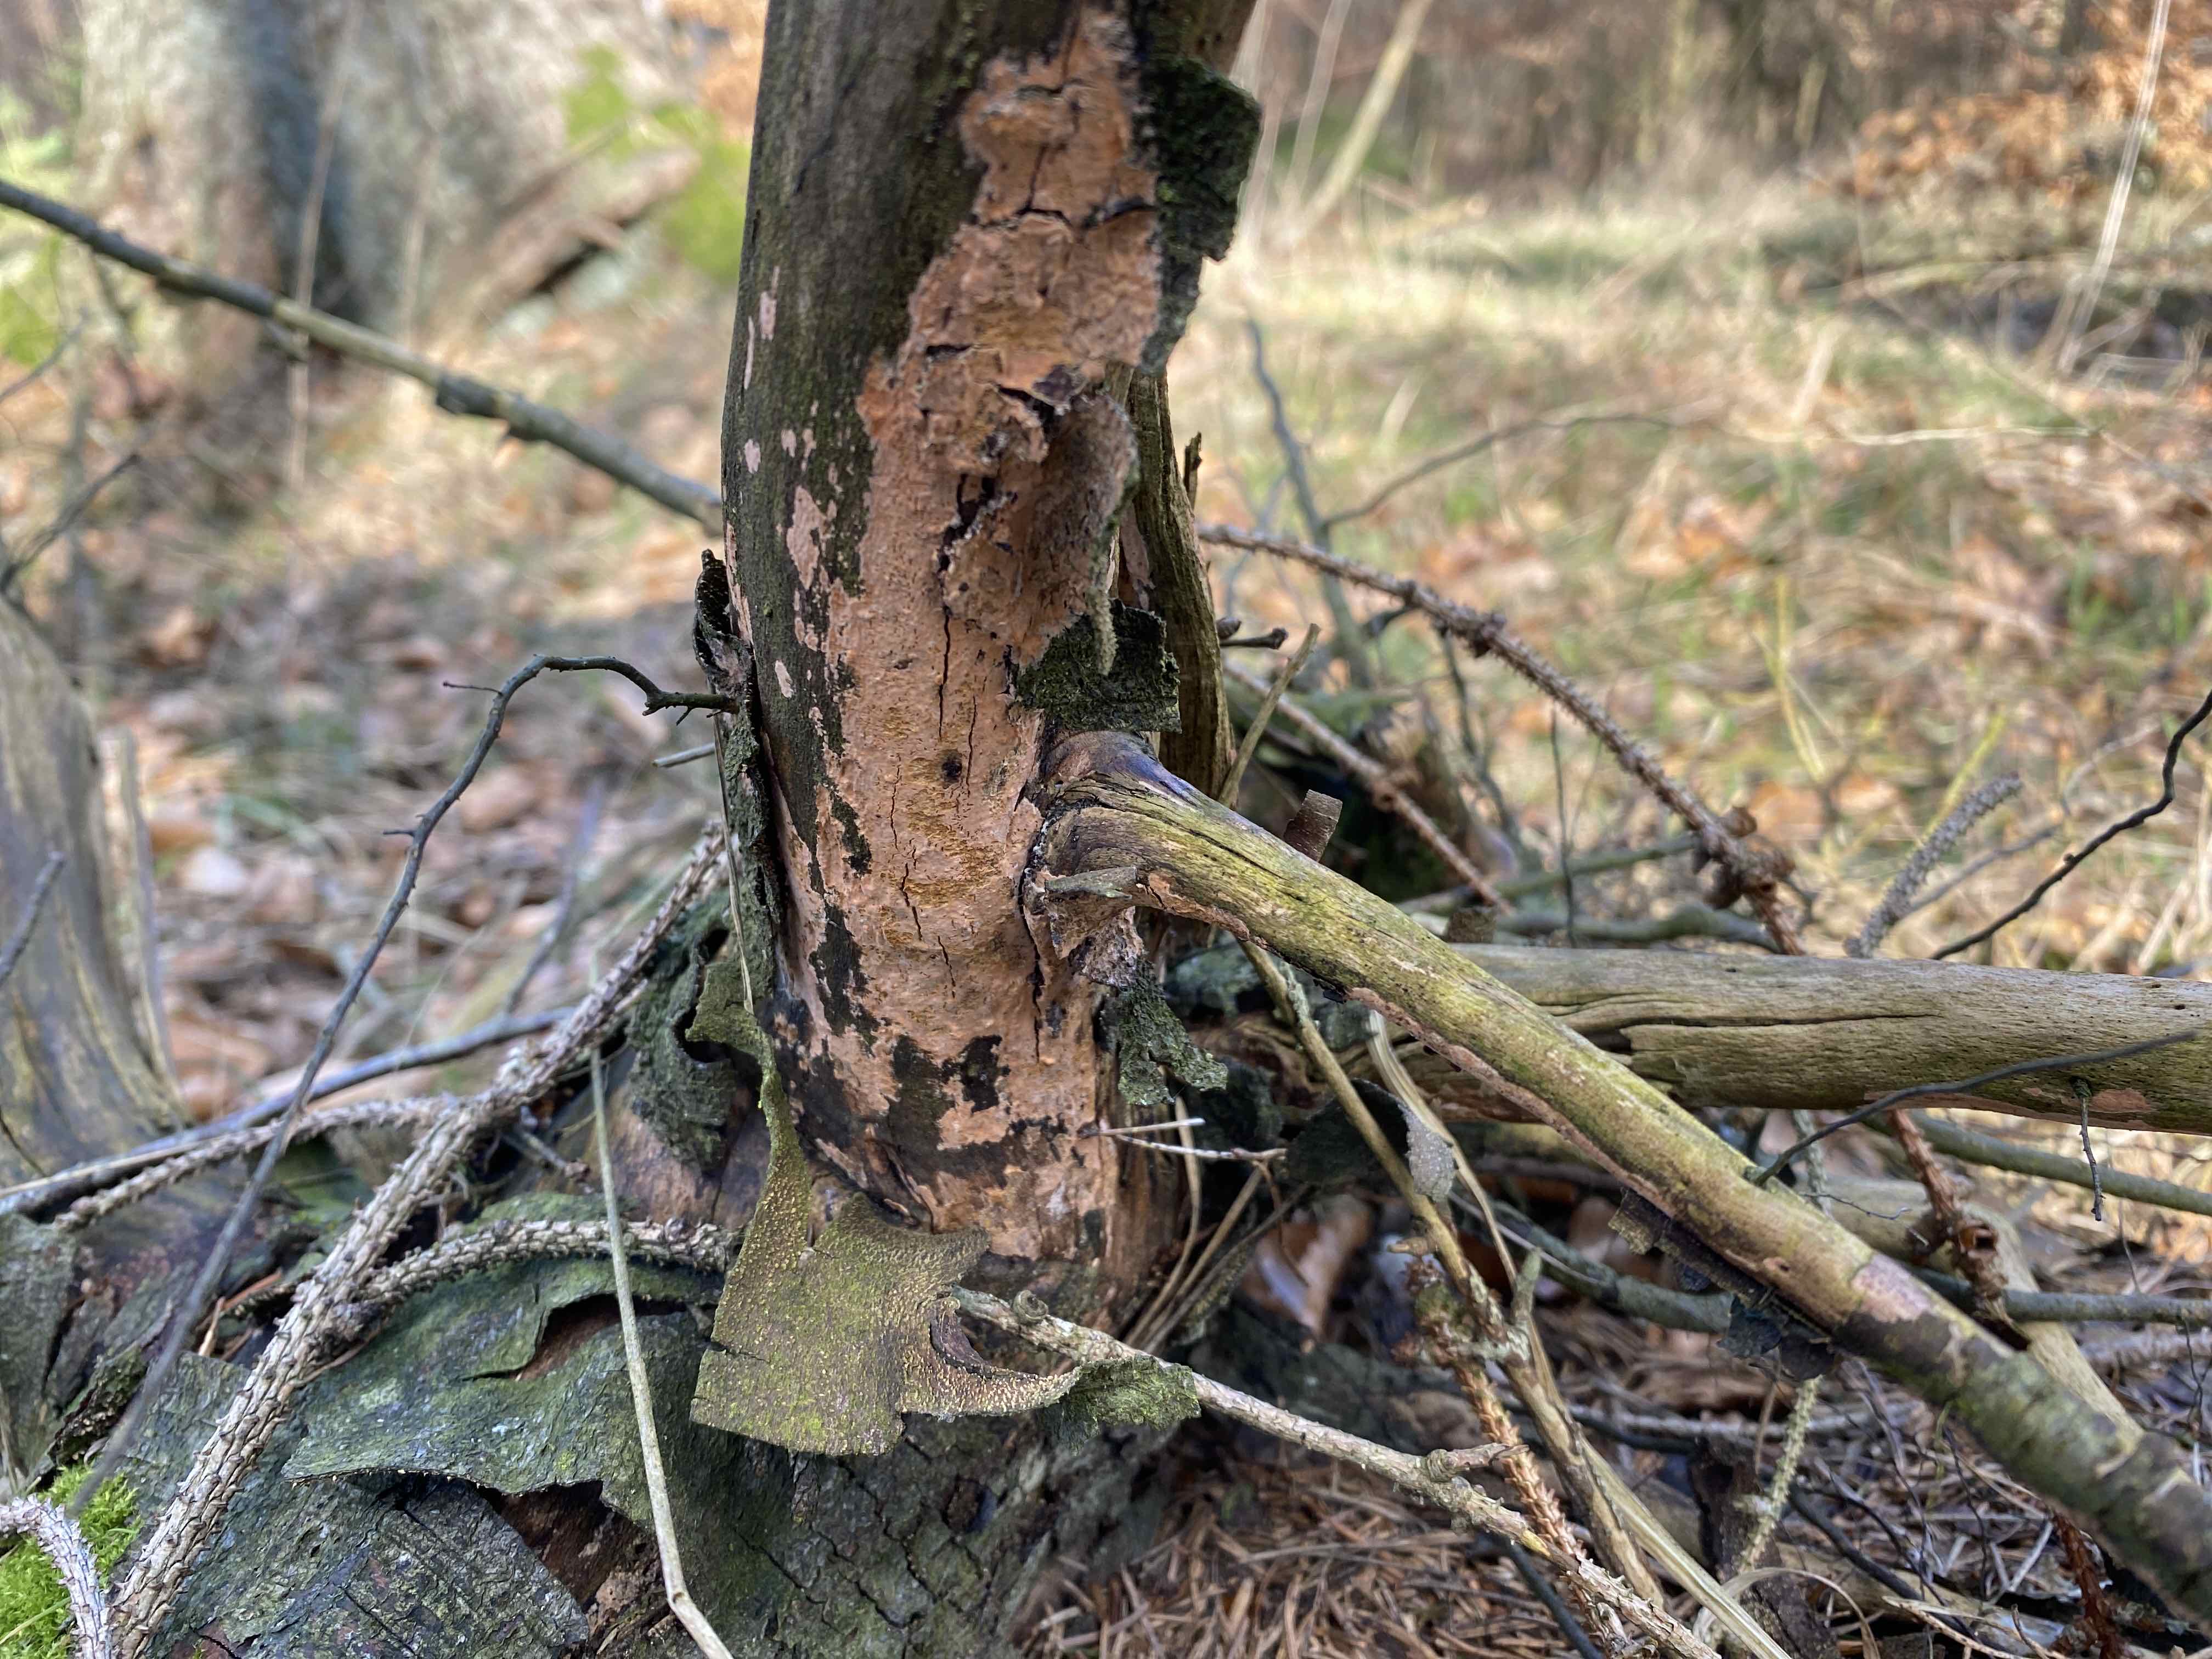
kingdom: Fungi
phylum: Basidiomycota
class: Agaricomycetes
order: Russulales
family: Peniophoraceae
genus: Peniophora
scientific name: Peniophora incarnata
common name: laksefarvet voksskind
